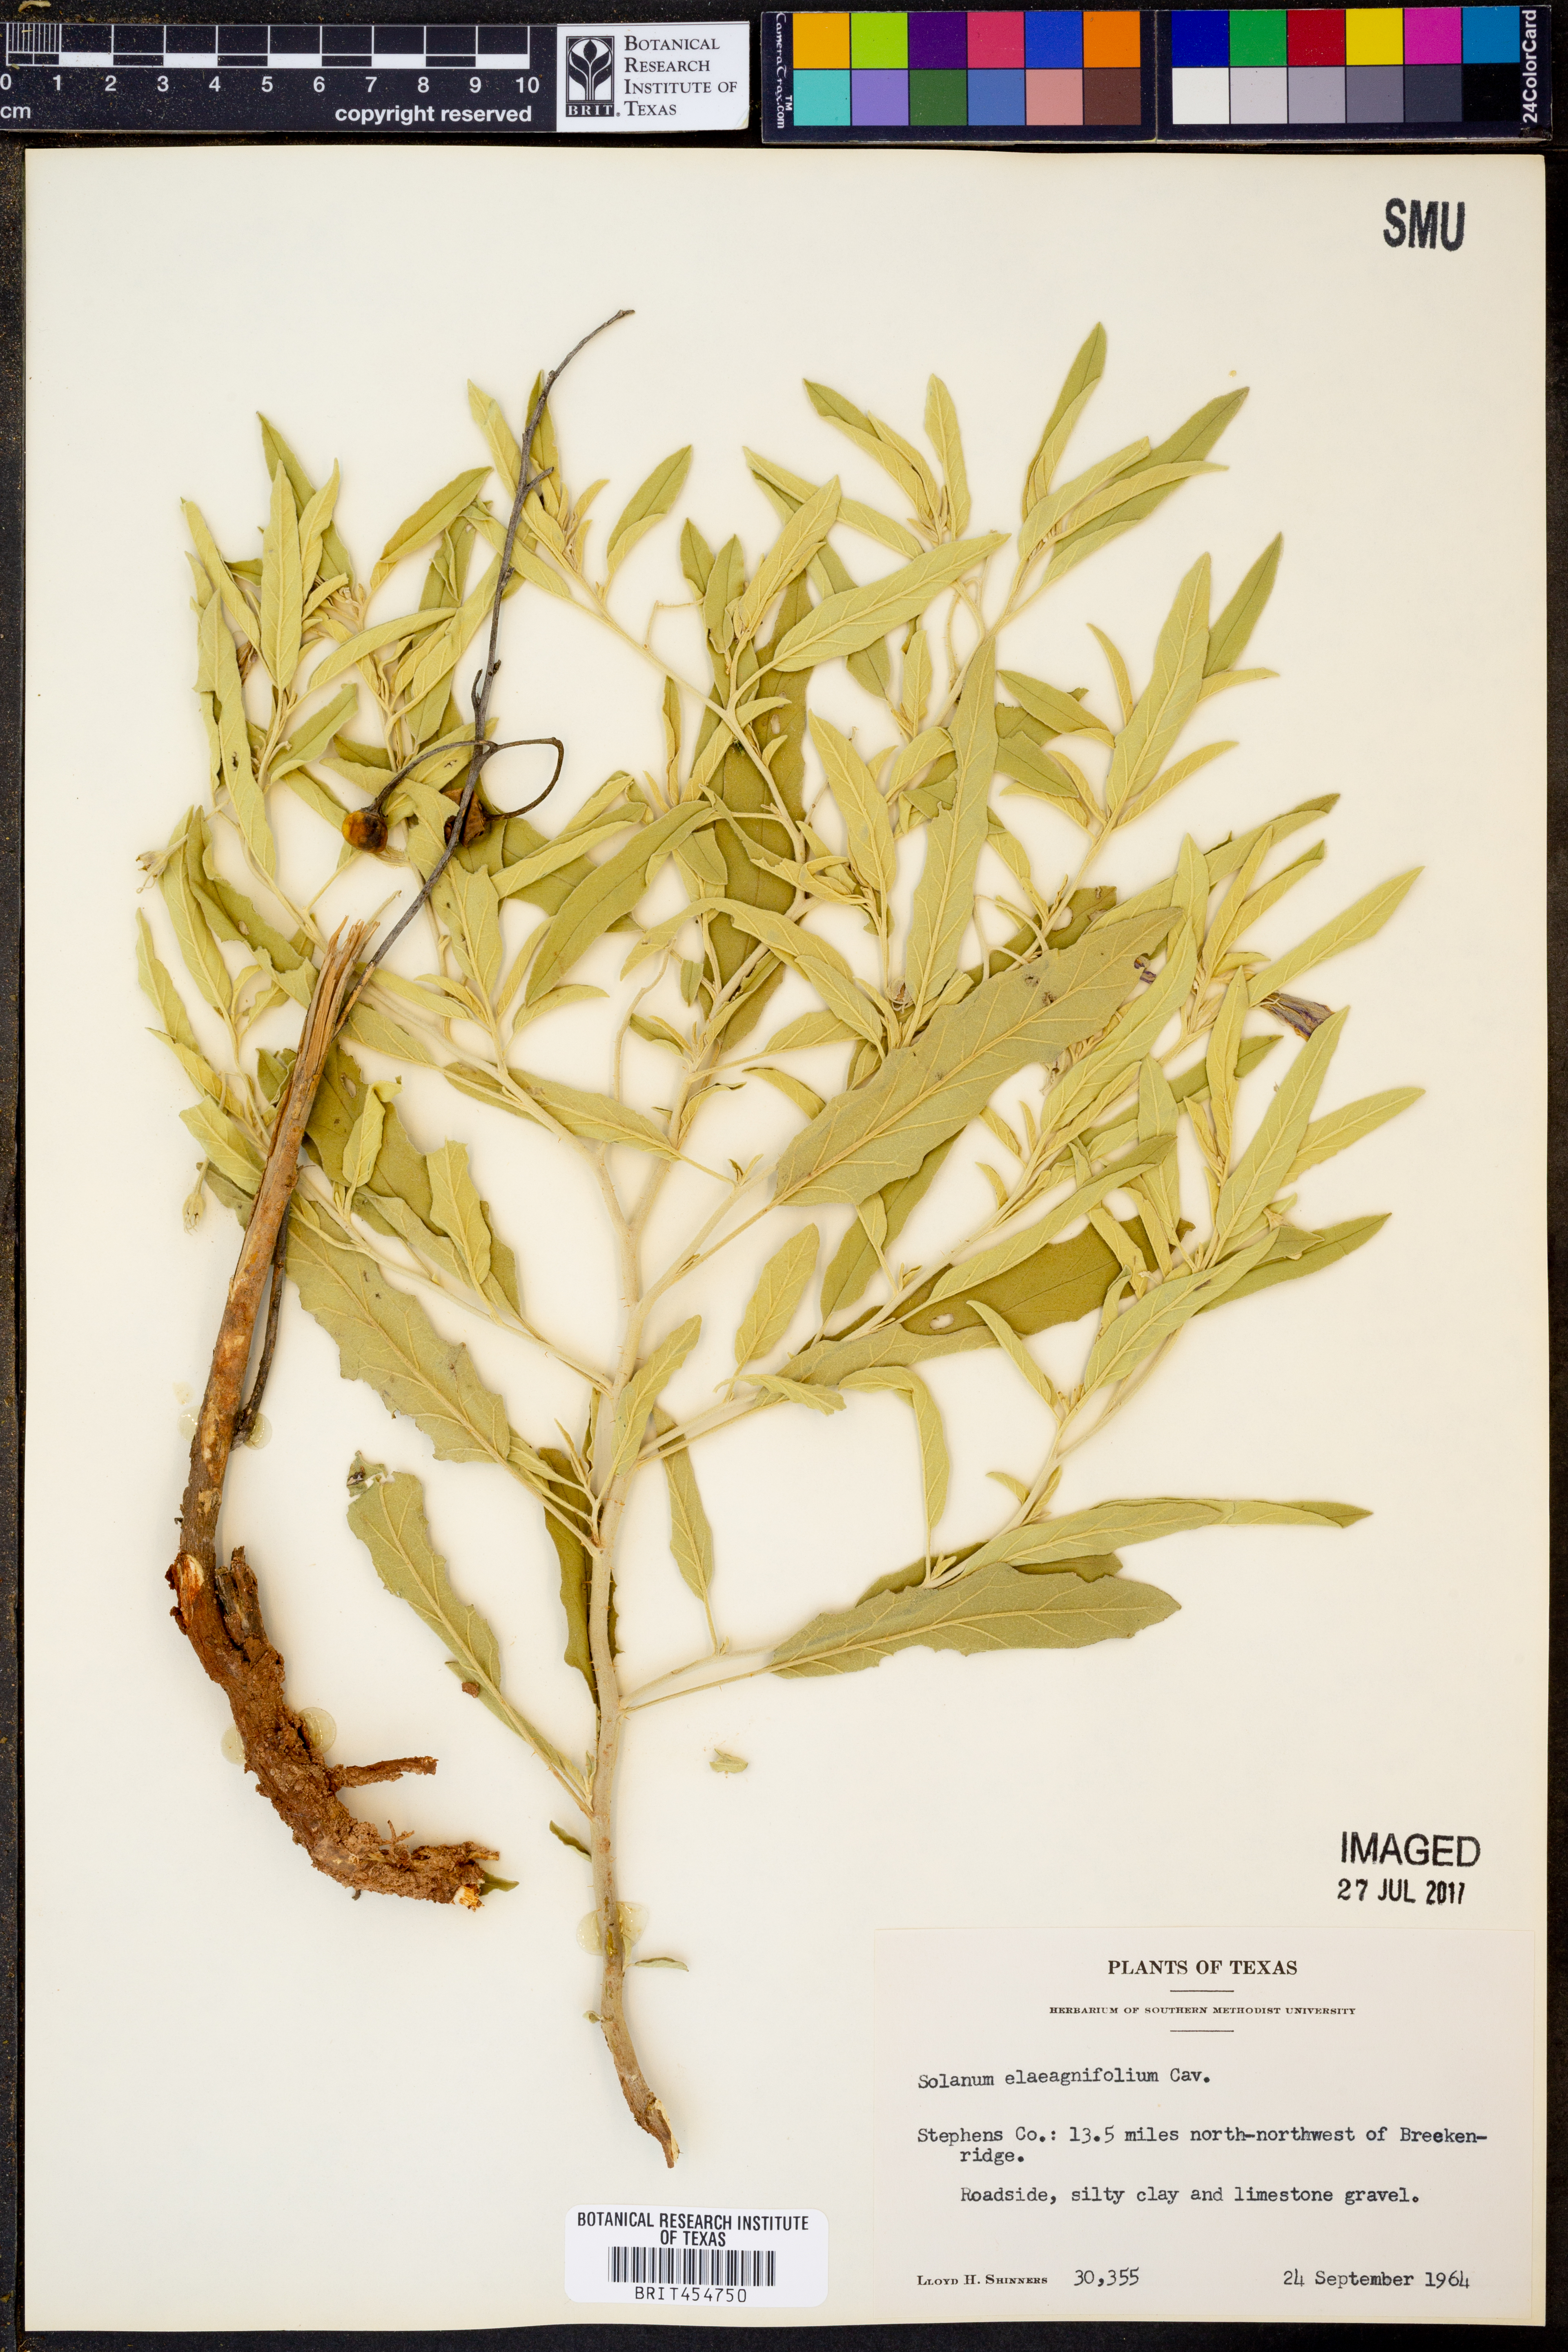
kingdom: Plantae
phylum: Tracheophyta
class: Magnoliopsida
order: Solanales
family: Solanaceae
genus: Solanum
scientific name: Solanum elaeagnifolium
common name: Silverleaf nightshade
